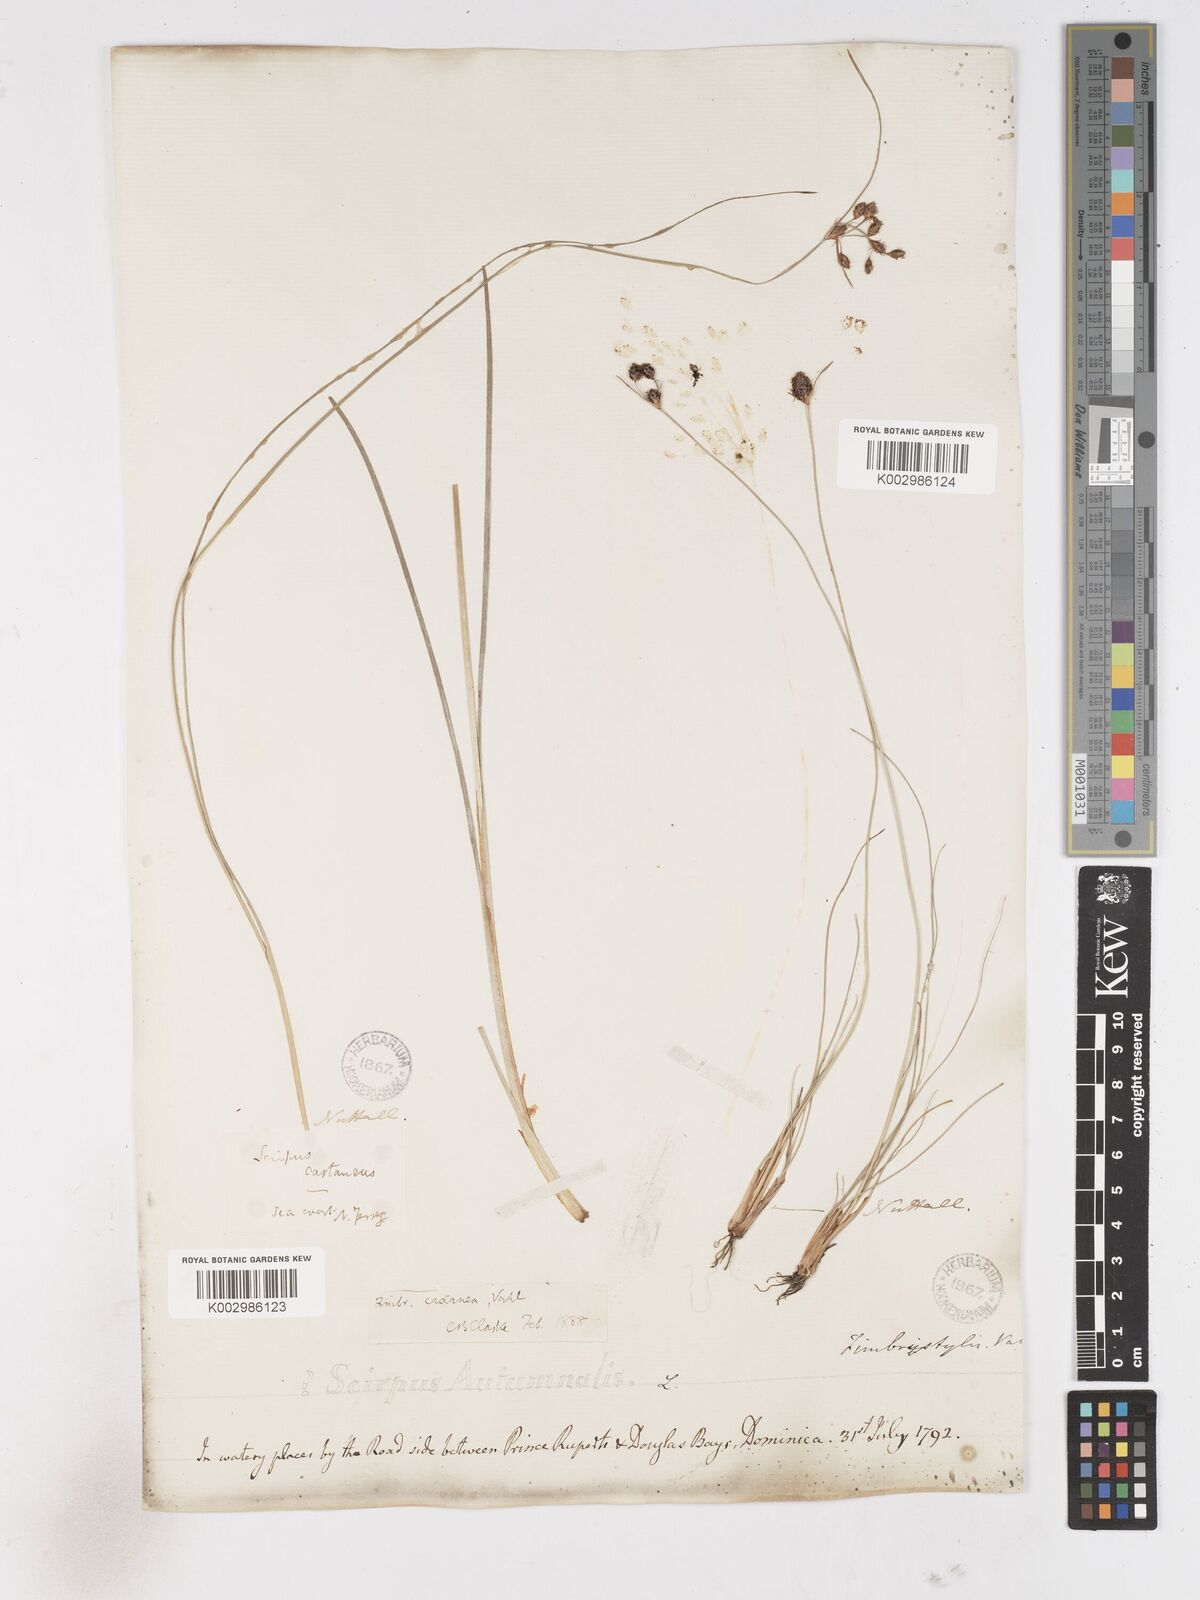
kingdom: Plantae
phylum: Tracheophyta
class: Liliopsida
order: Poales
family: Cyperaceae
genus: Fimbristylis
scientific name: Fimbristylis spadicea
